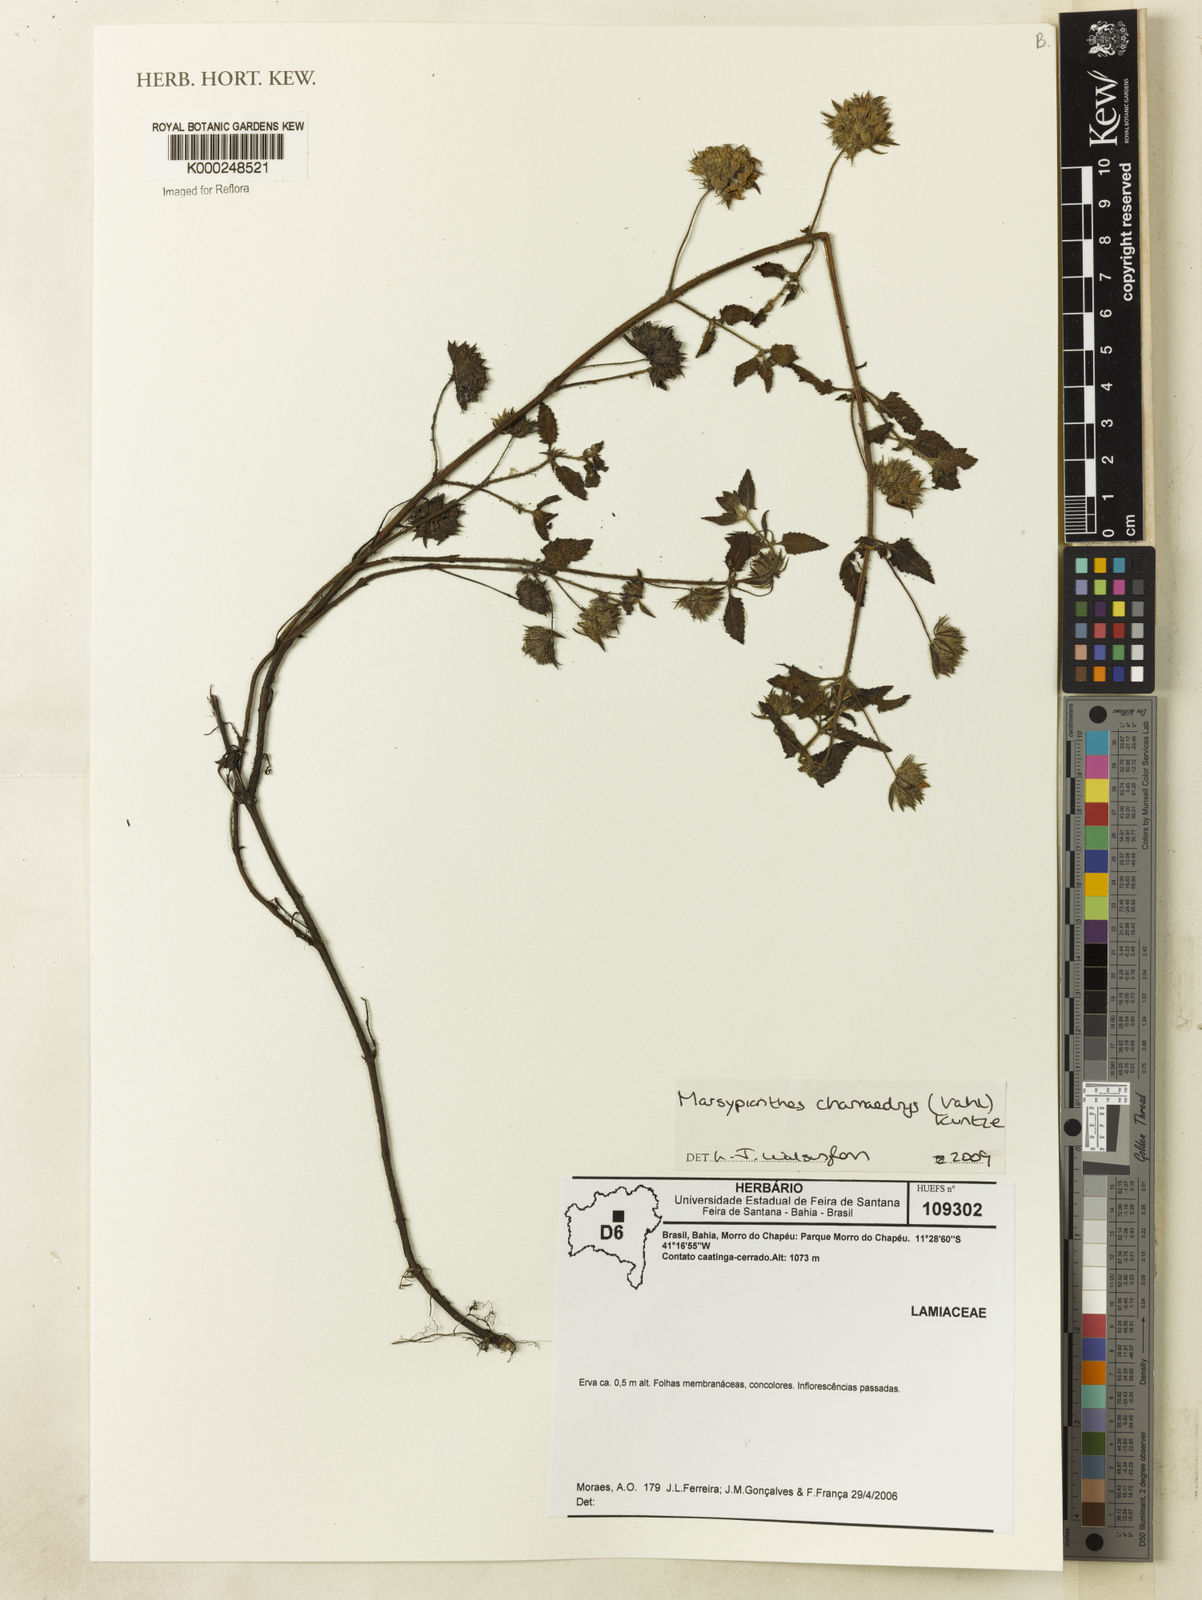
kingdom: Plantae
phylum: Tracheophyta
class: Magnoliopsida
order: Lamiales
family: Lamiaceae
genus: Marsypianthes
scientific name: Marsypianthes chamaedrys
